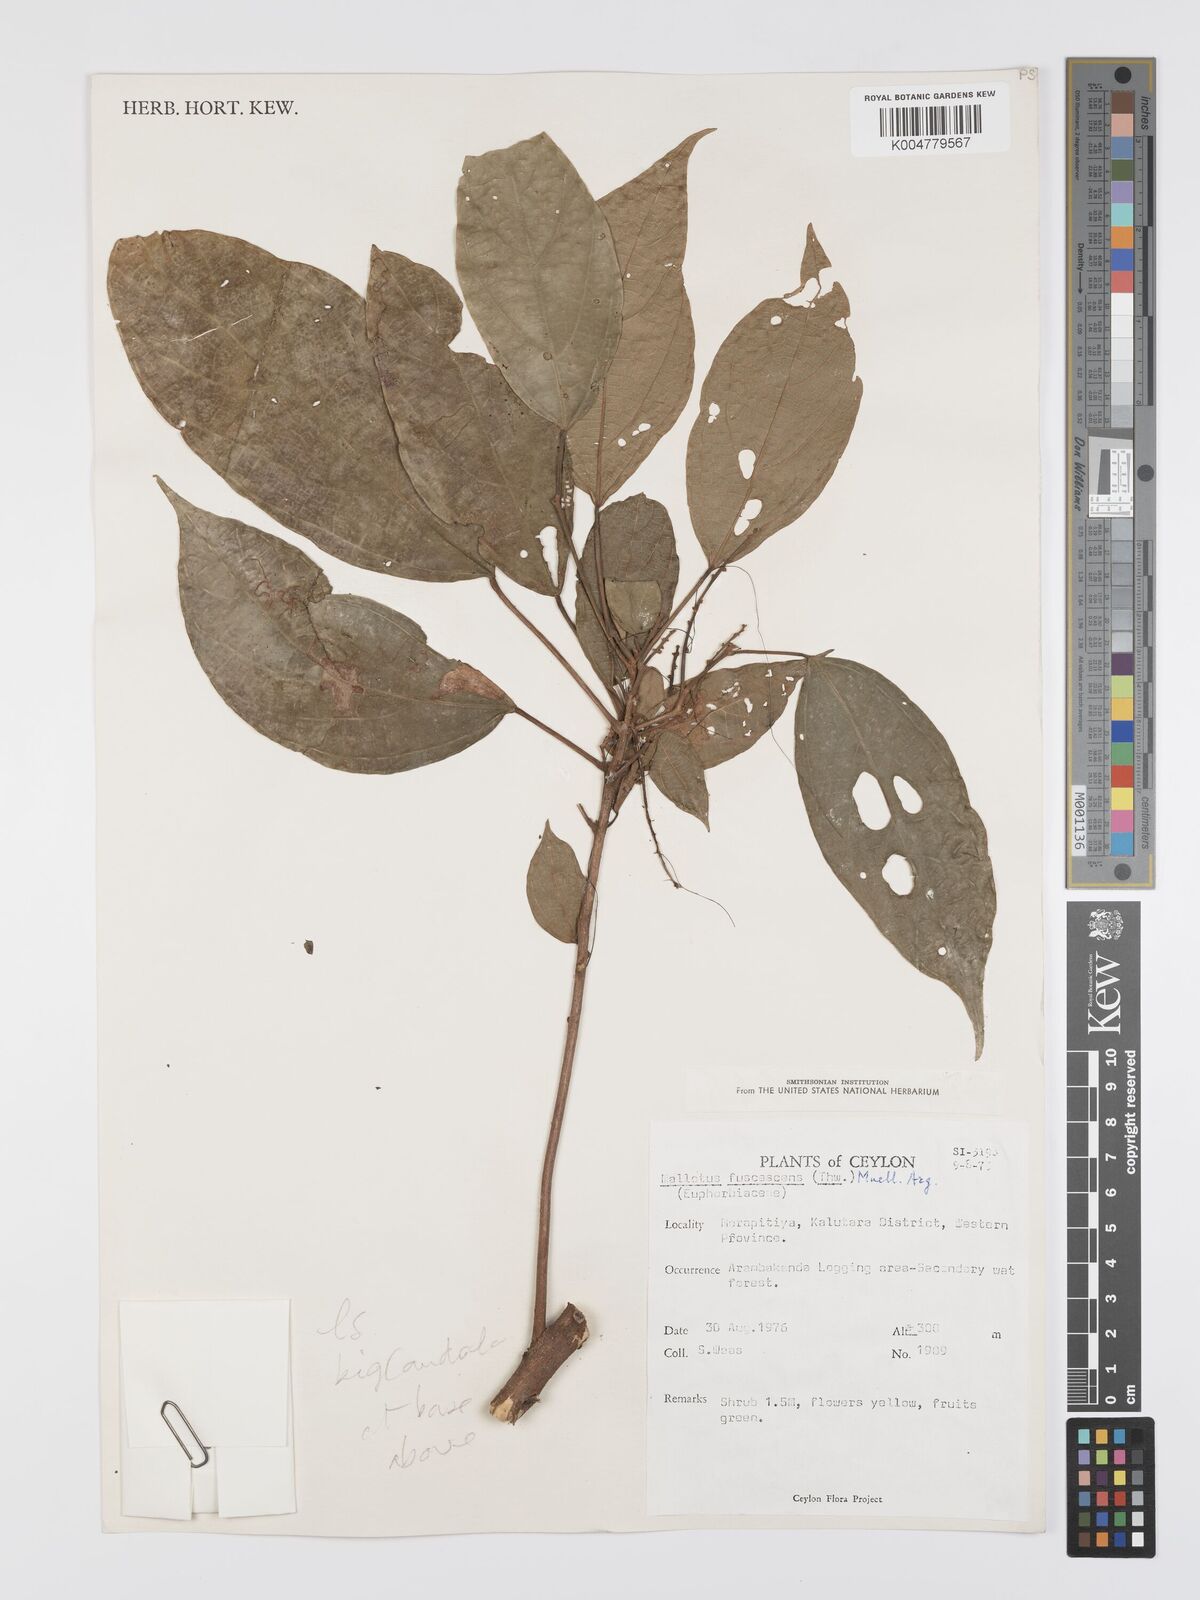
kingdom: Plantae
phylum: Tracheophyta
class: Magnoliopsida
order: Malpighiales
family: Euphorbiaceae
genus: Mallotus
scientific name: Mallotus fuscescens
